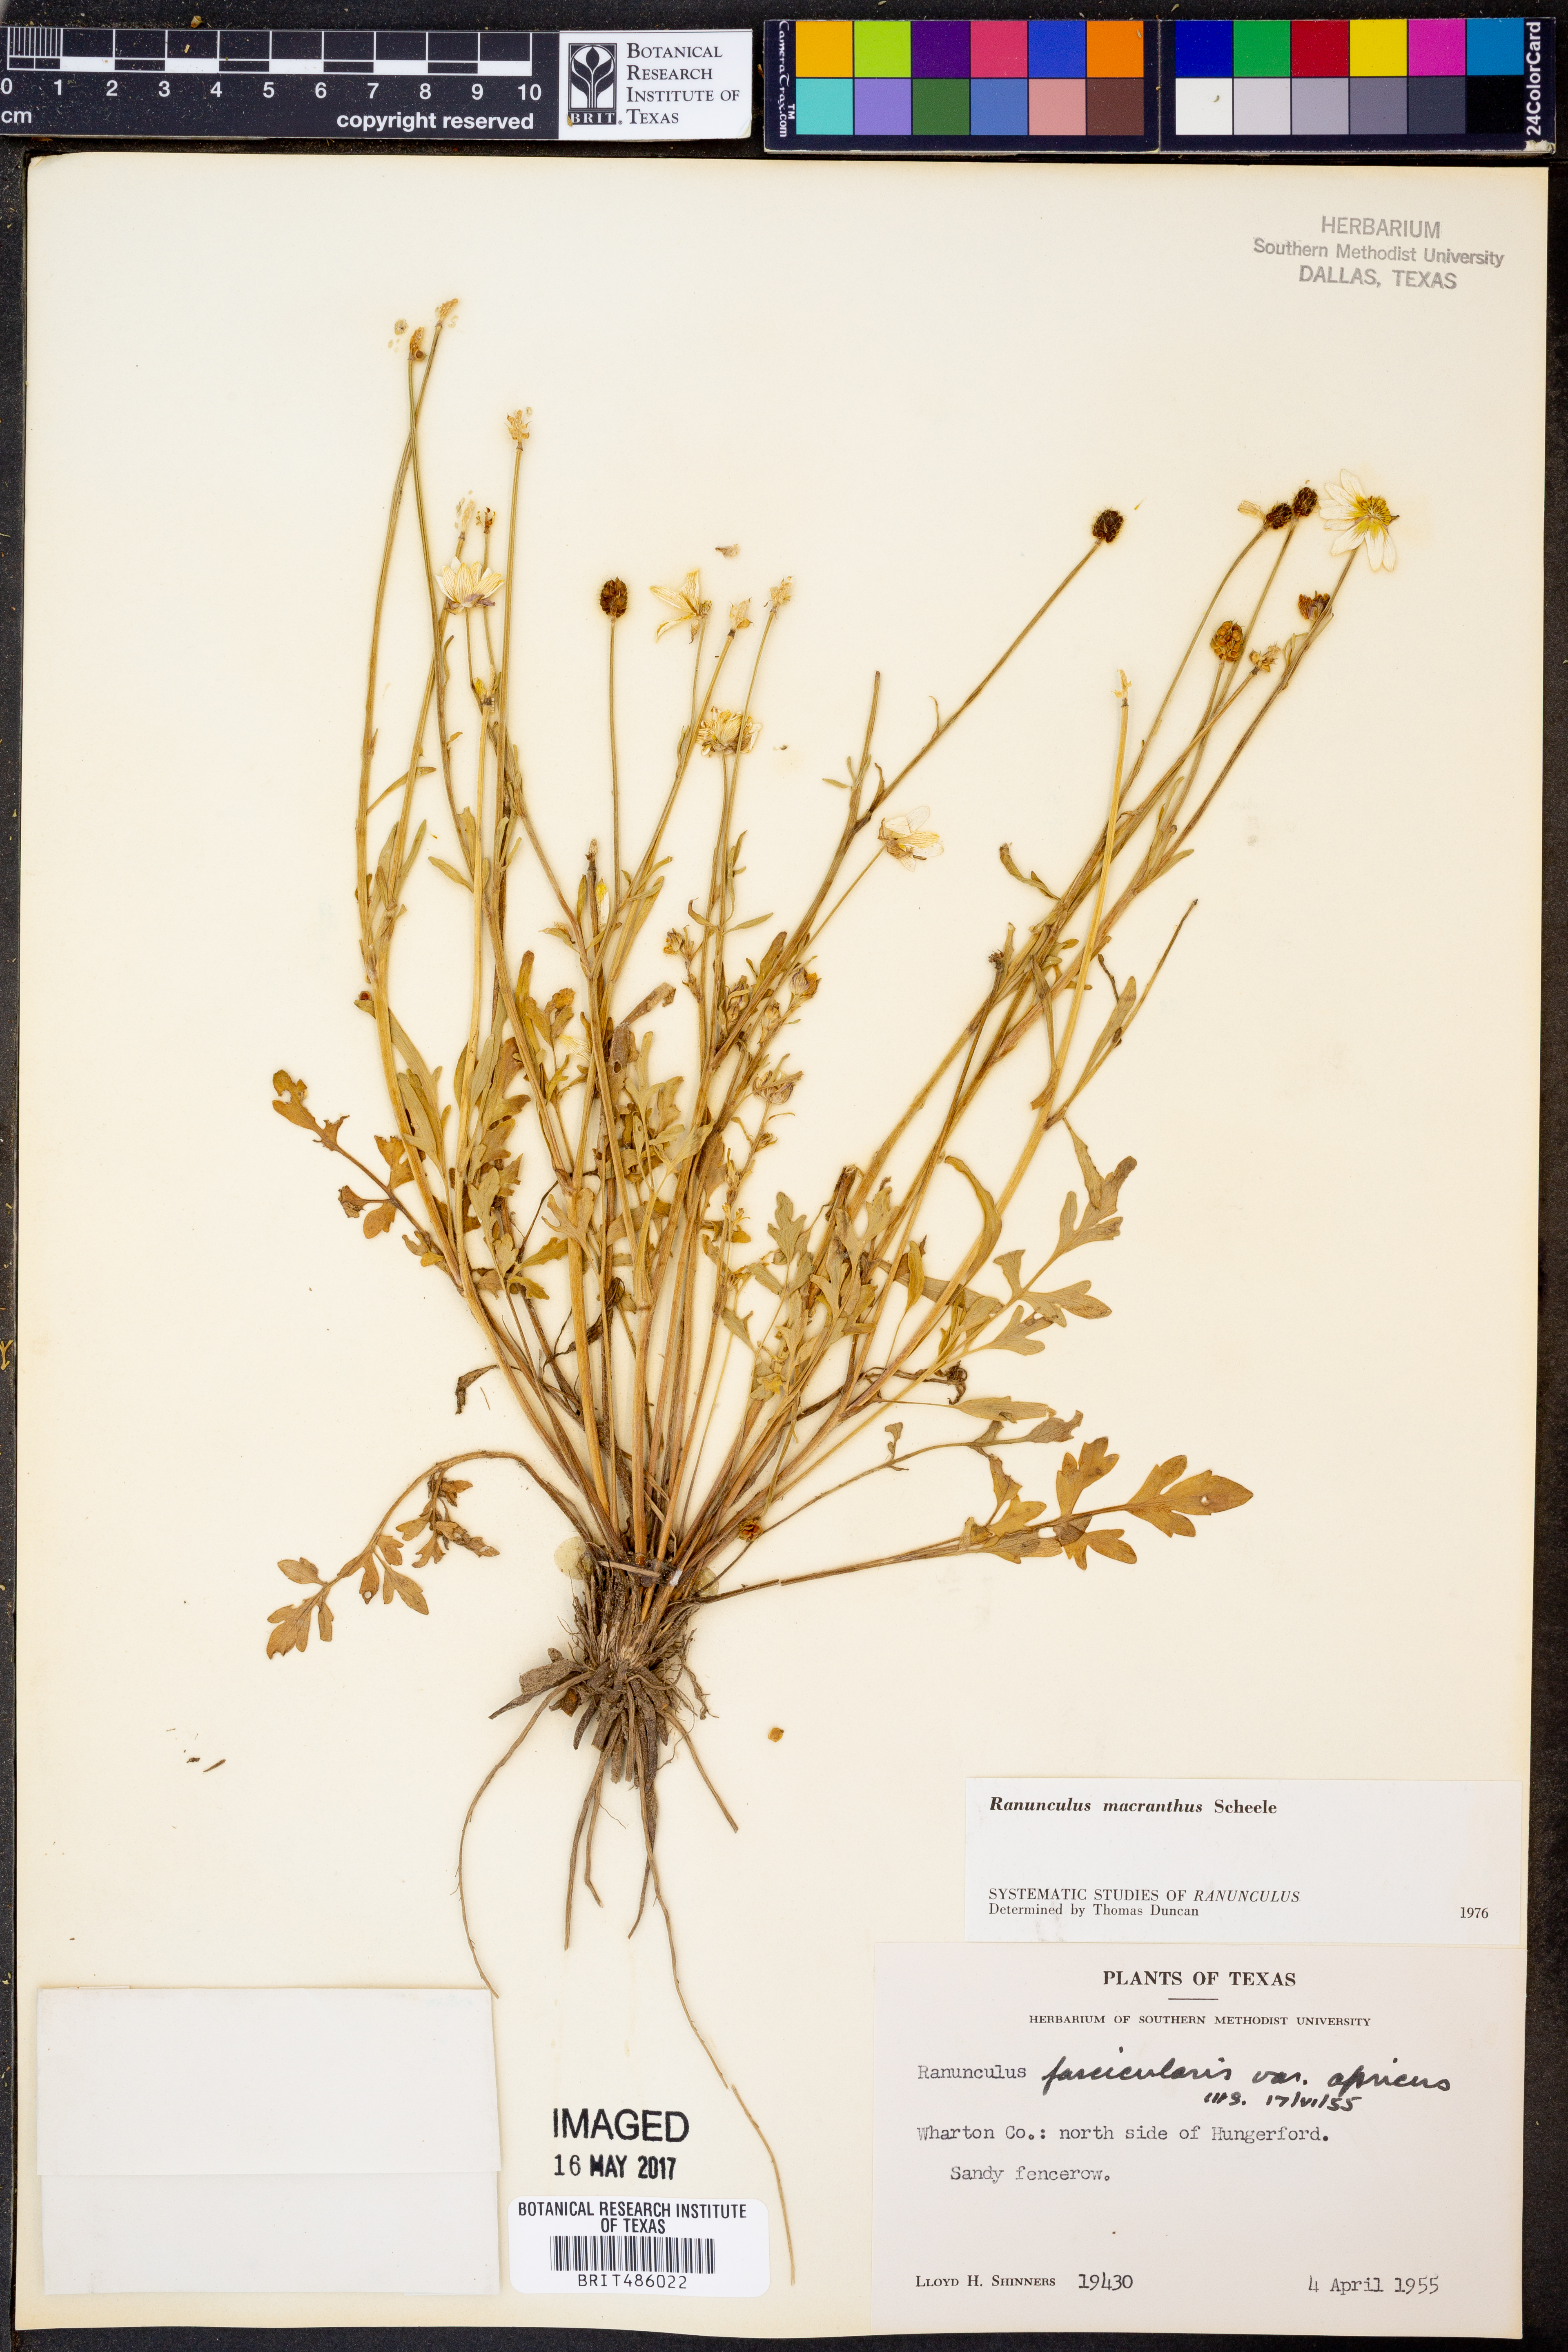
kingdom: Plantae
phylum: Tracheophyta
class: Magnoliopsida
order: Ranunculales
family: Ranunculaceae
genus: Ranunculus
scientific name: Ranunculus macranthus
